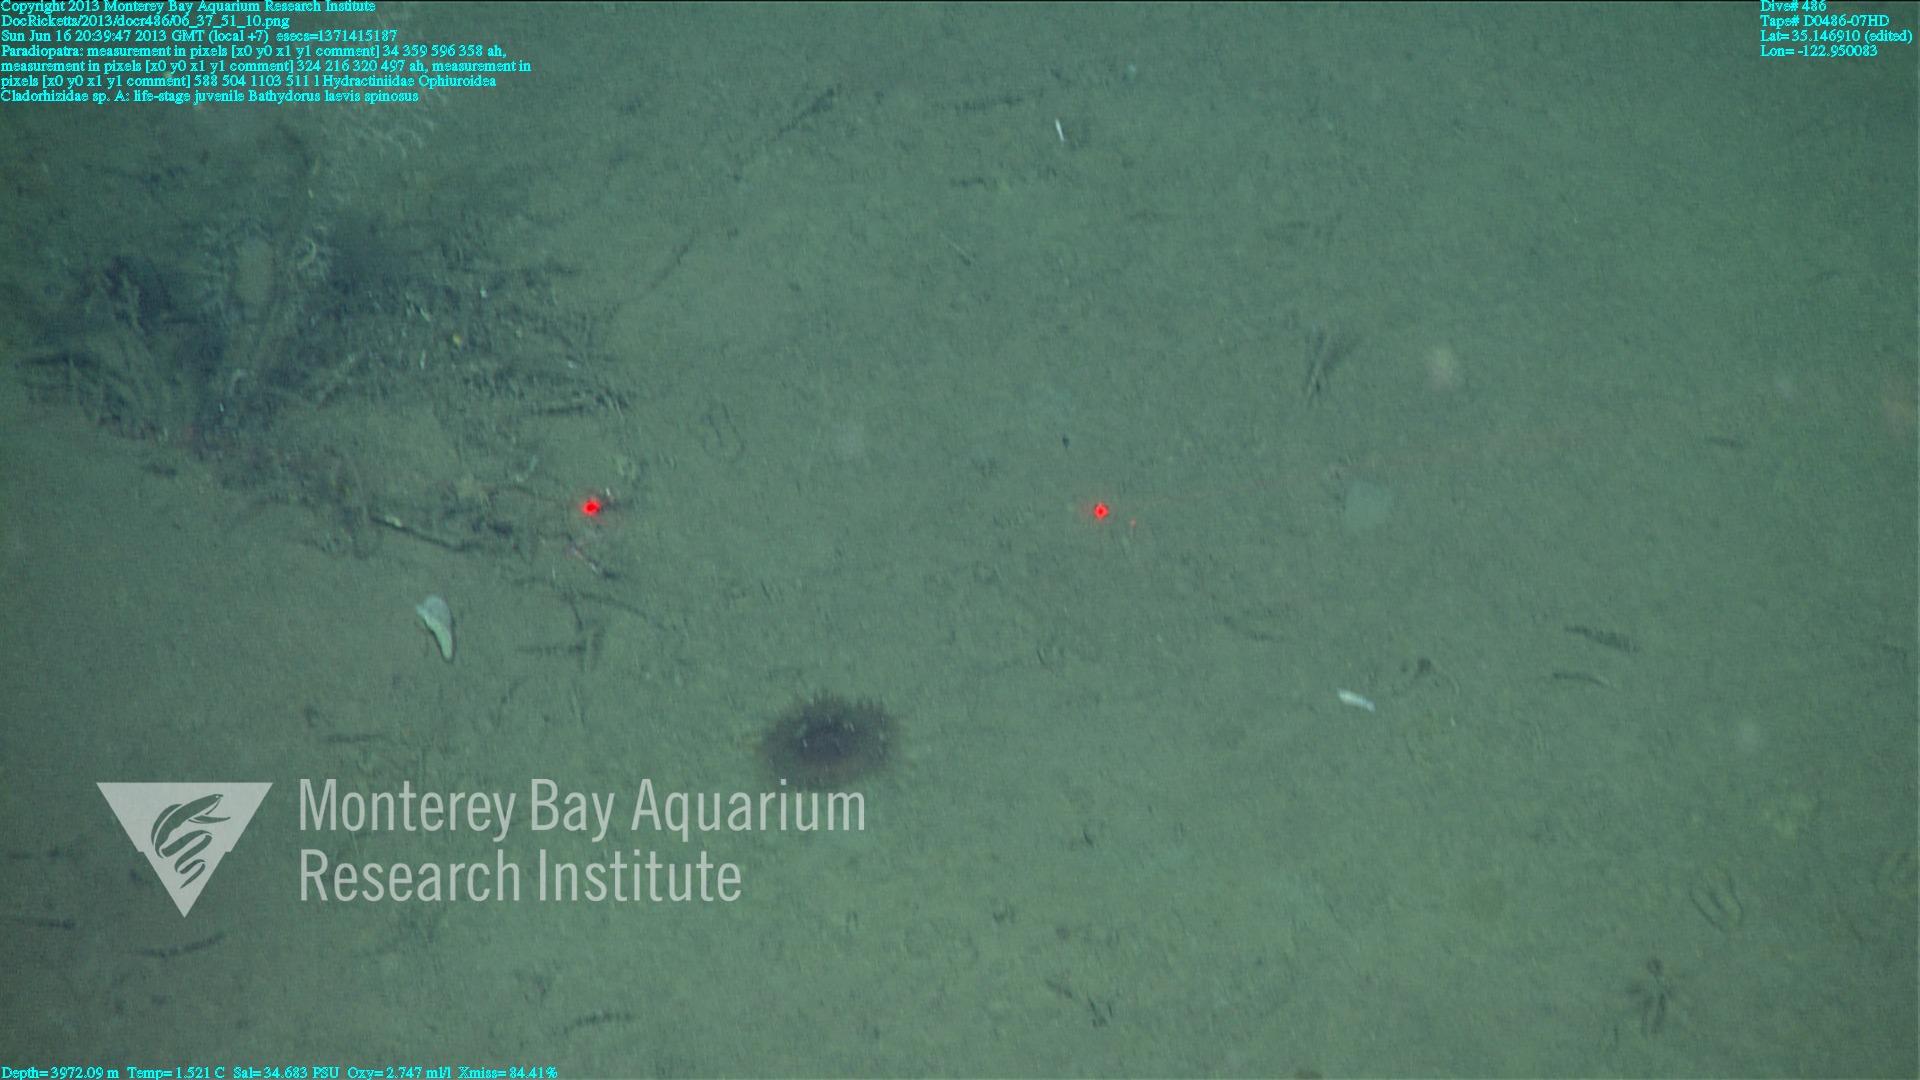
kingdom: Animalia
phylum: Porifera
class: Demospongiae
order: Poecilosclerida
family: Cladorhizidae
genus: Cladorhiza
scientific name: Cladorhiza
